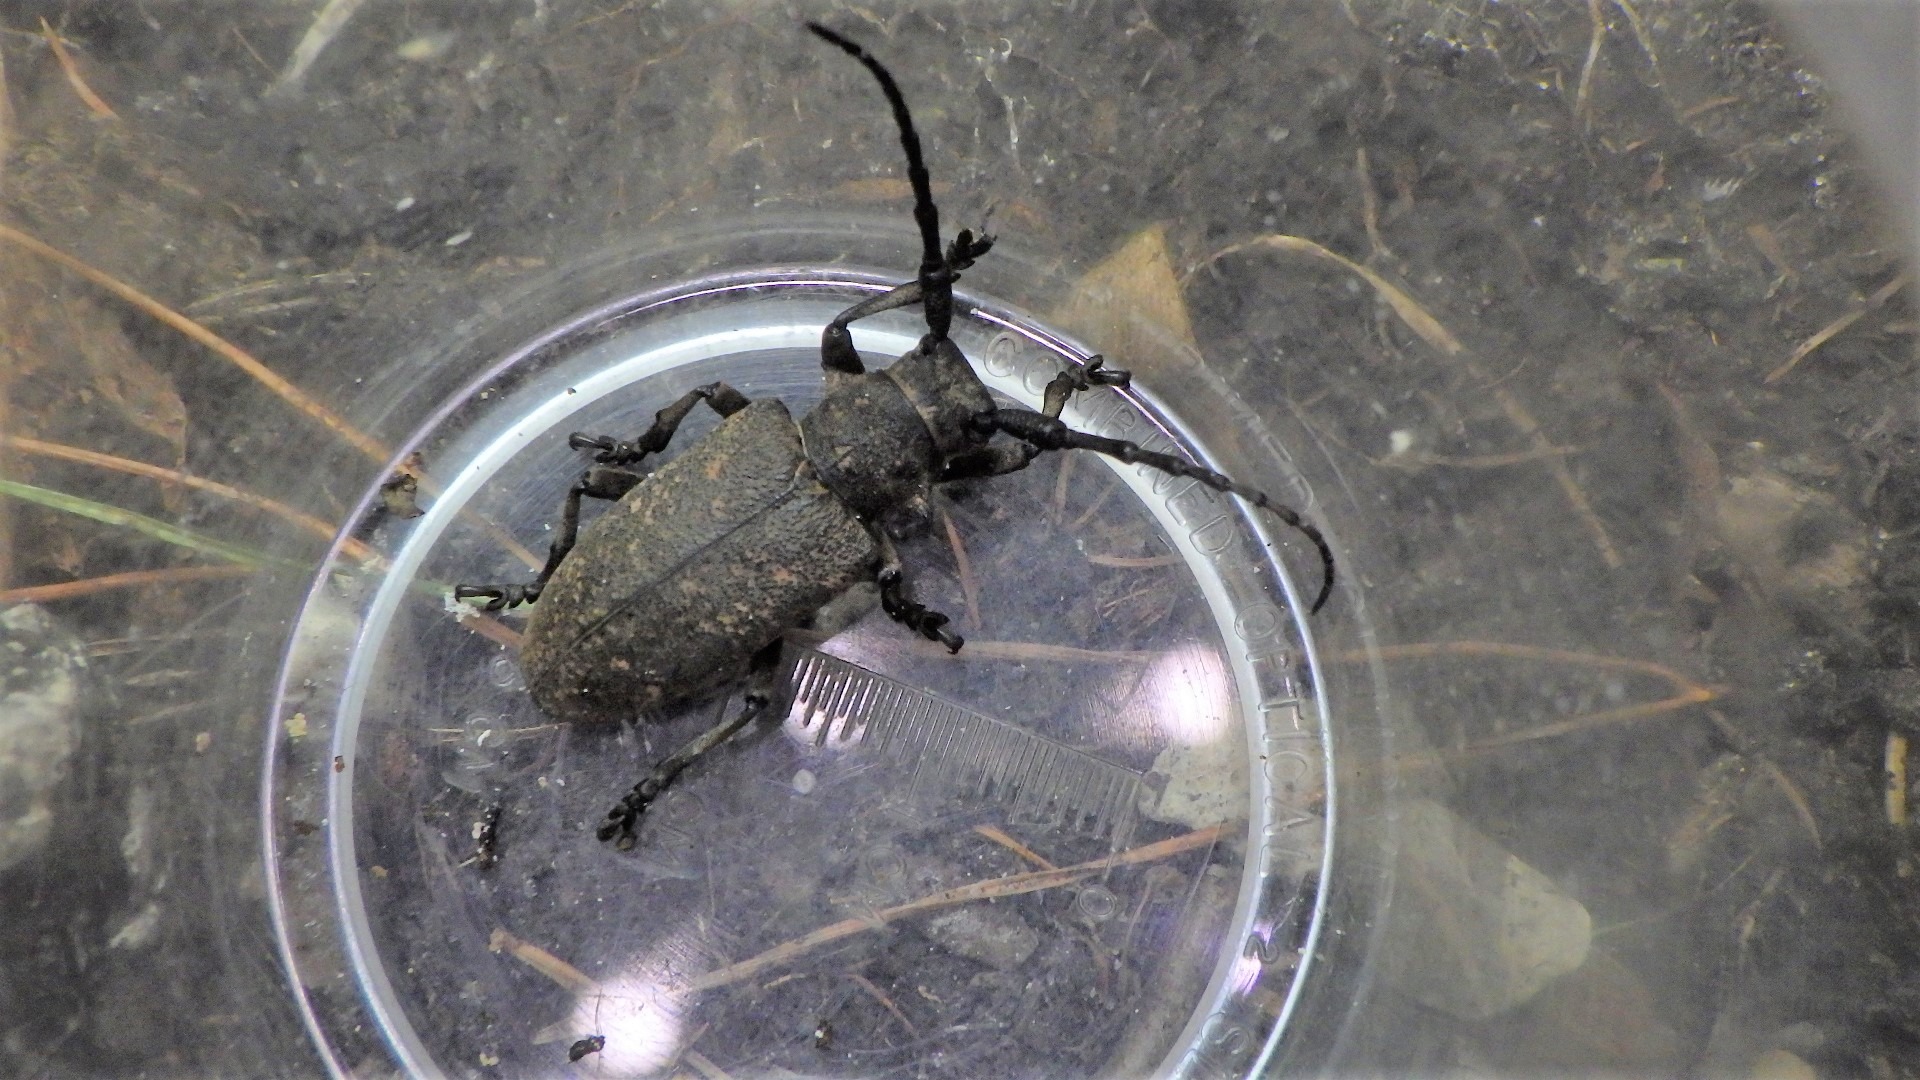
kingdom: Animalia
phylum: Arthropoda
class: Insecta
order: Coleoptera
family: Cerambycidae
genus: Lamia
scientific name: Lamia textor
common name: Væver
